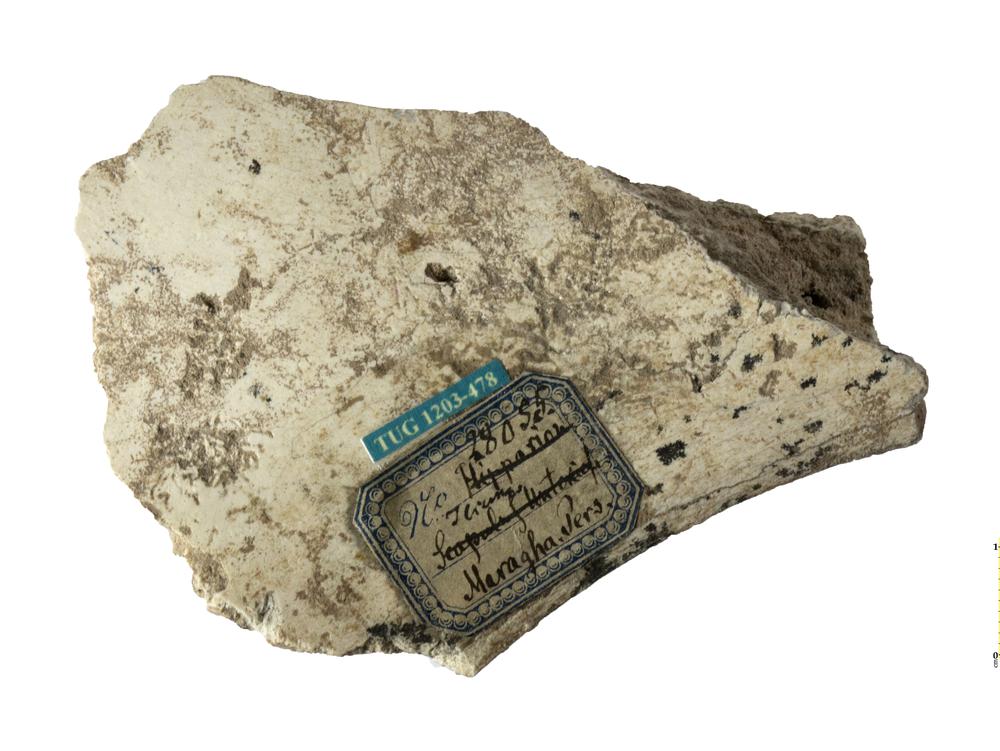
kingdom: Animalia
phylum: Chordata
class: Mammalia
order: Perissodactyla
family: Equidae
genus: Hipparion
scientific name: Hipparion
